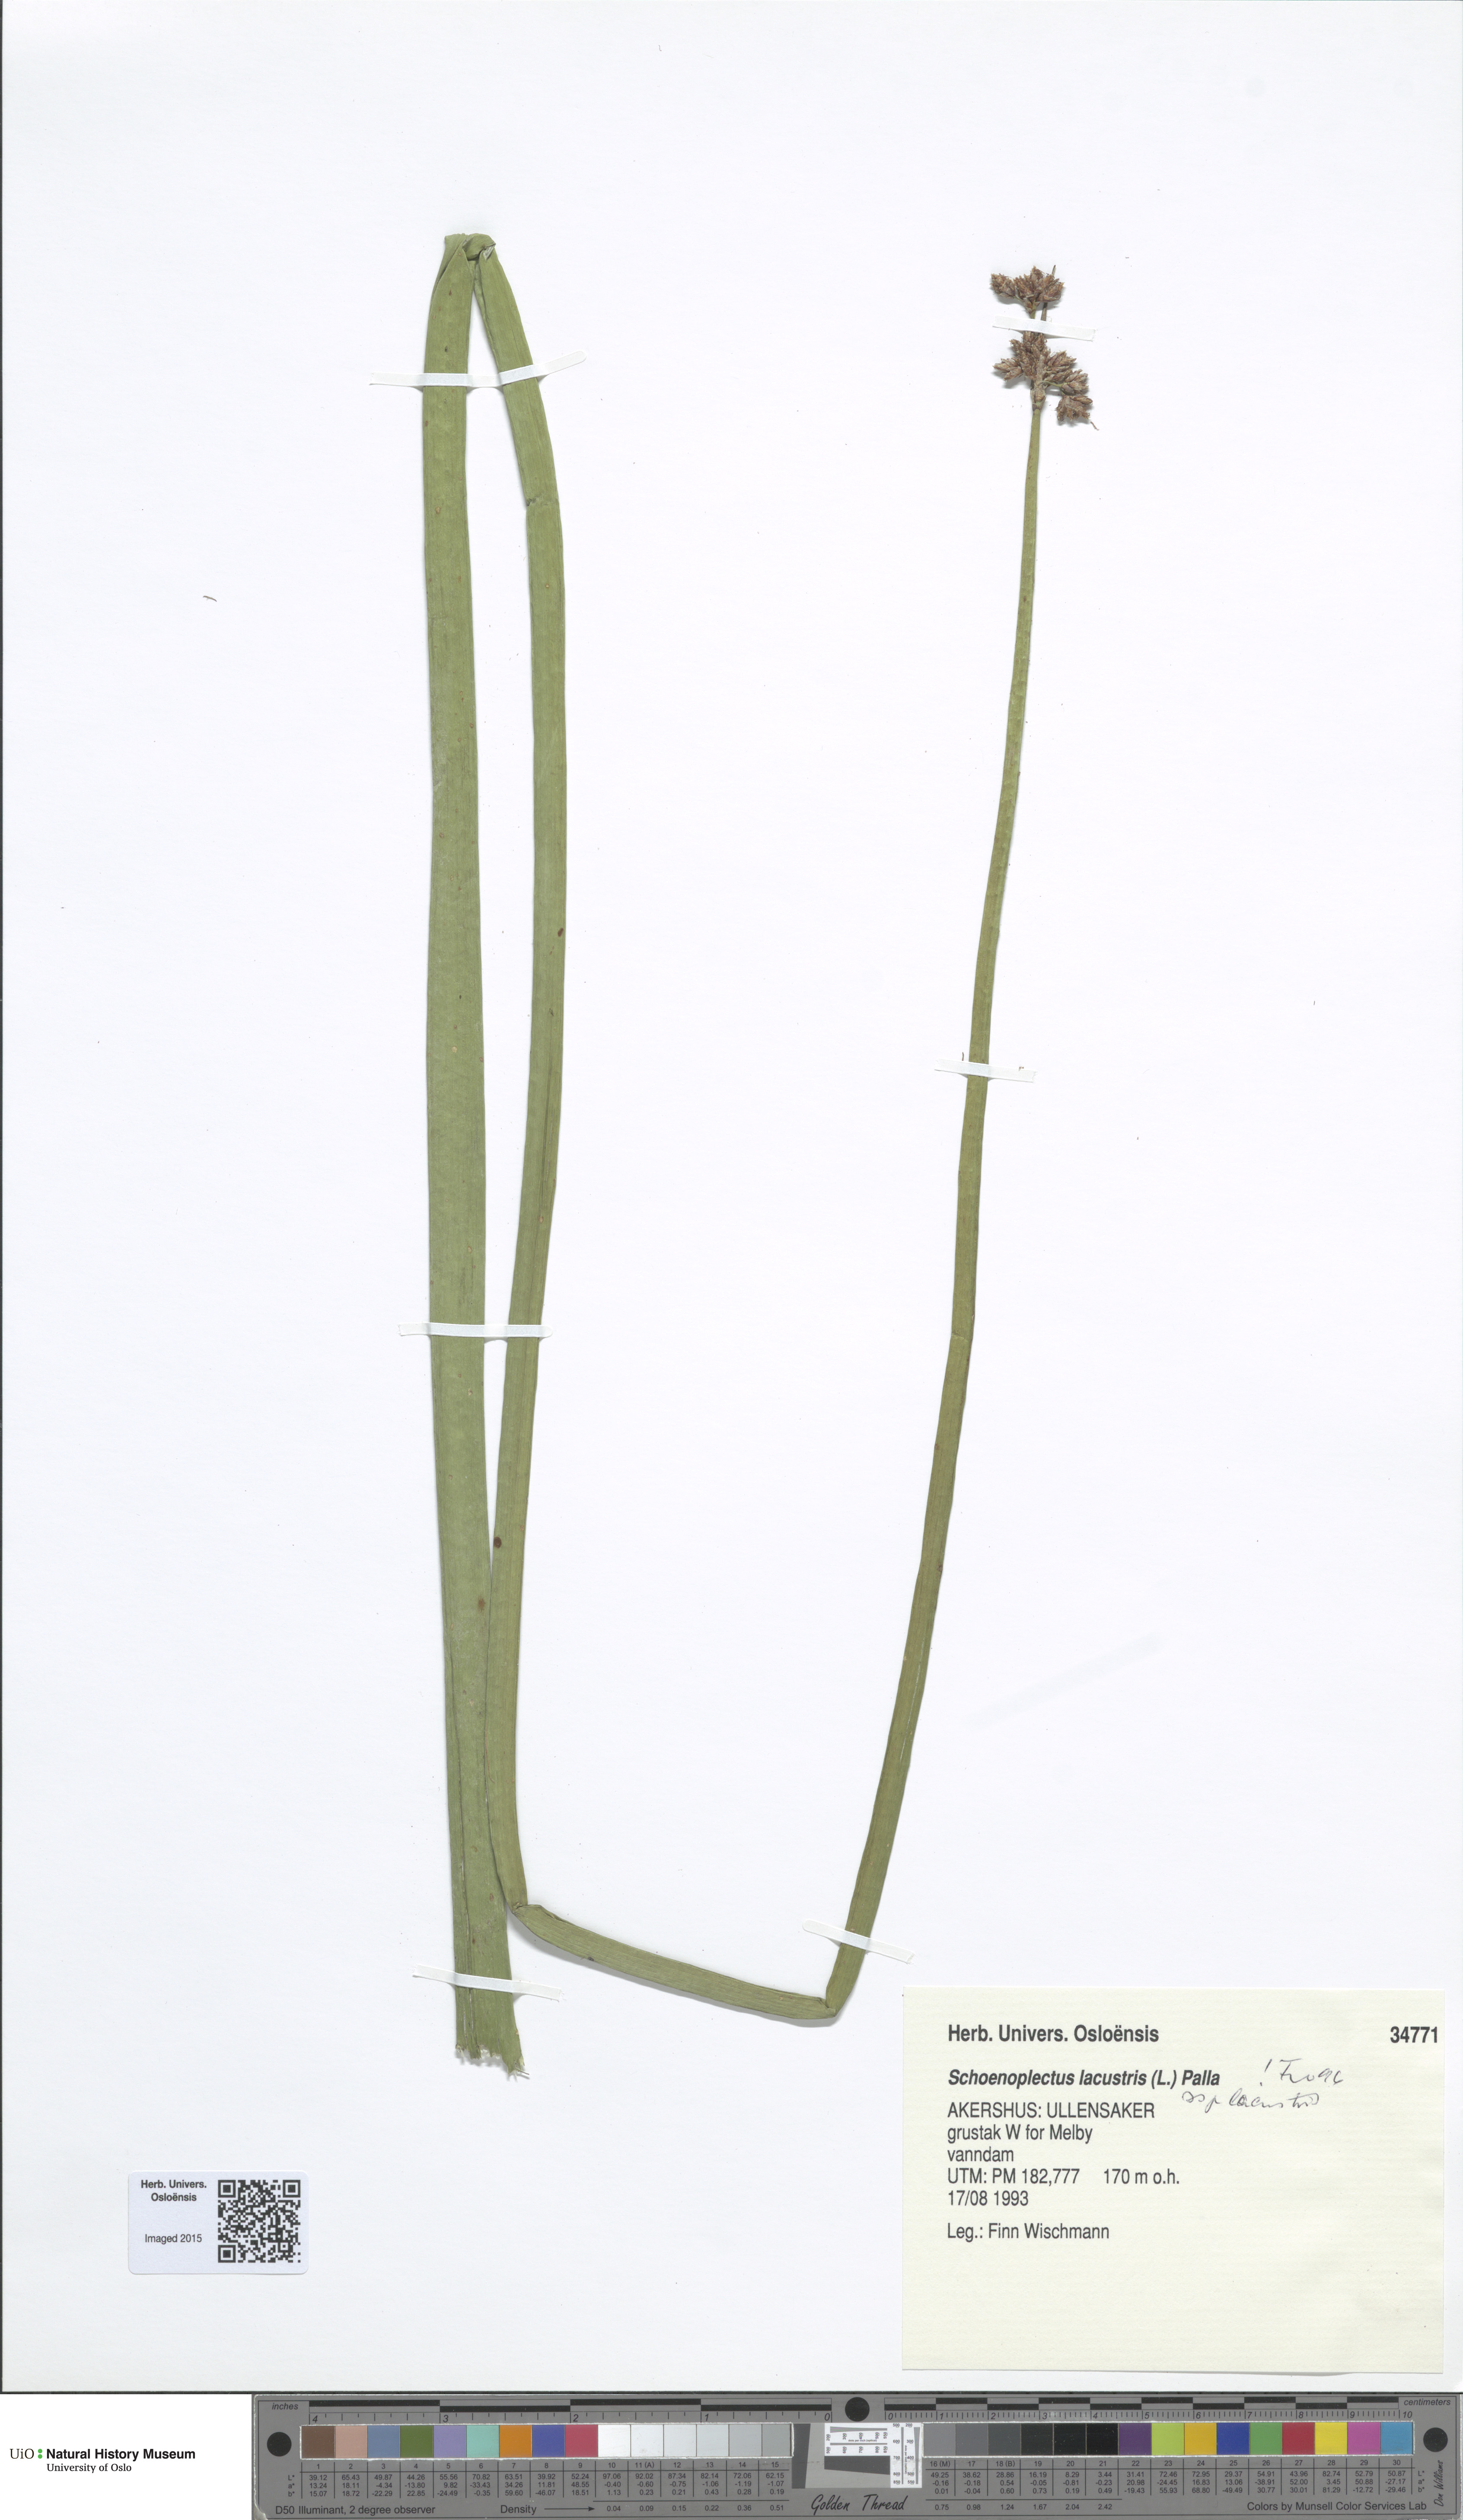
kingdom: Plantae
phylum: Tracheophyta
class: Liliopsida
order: Poales
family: Cyperaceae
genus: Schoenoplectus
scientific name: Schoenoplectus lacustris
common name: Common club-rush
